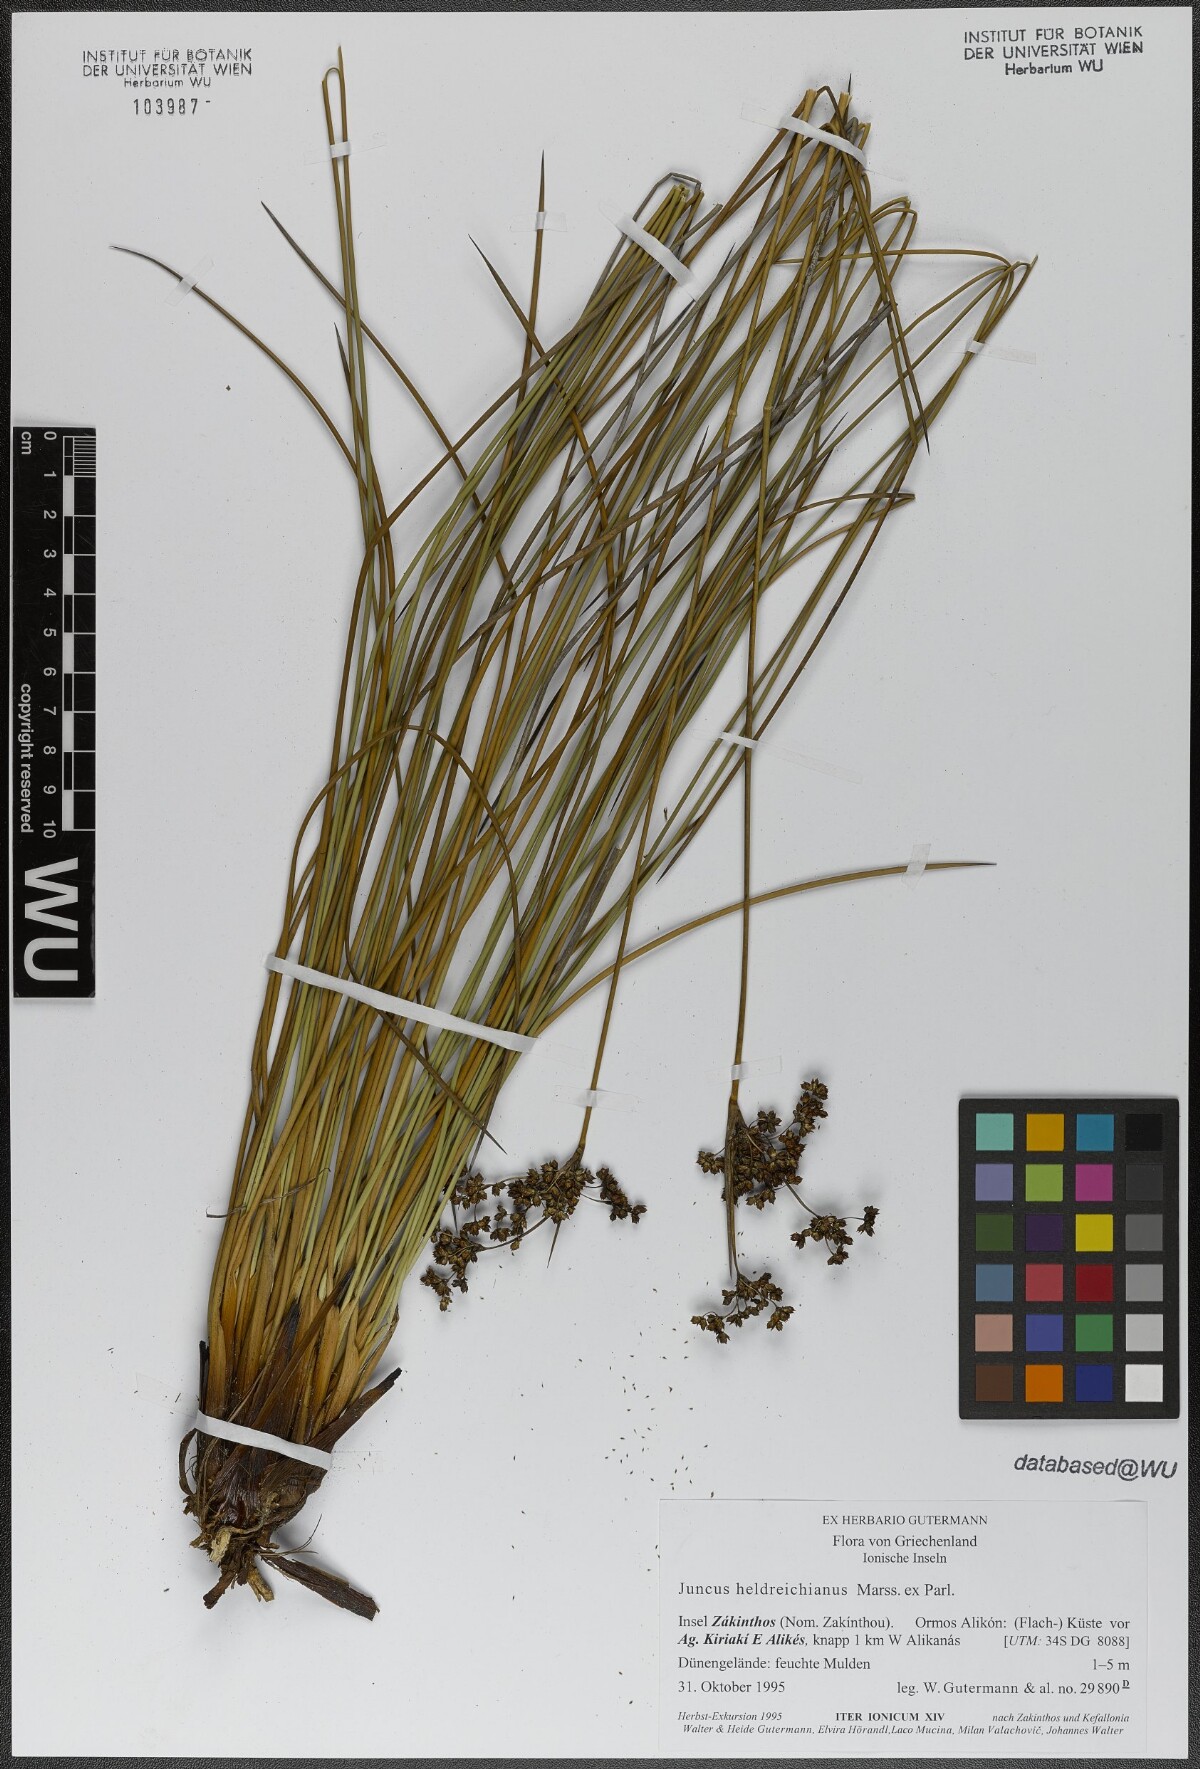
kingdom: Plantae
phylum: Tracheophyta
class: Liliopsida
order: Poales
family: Juncaceae
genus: Juncus
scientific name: Juncus heldreichianus
